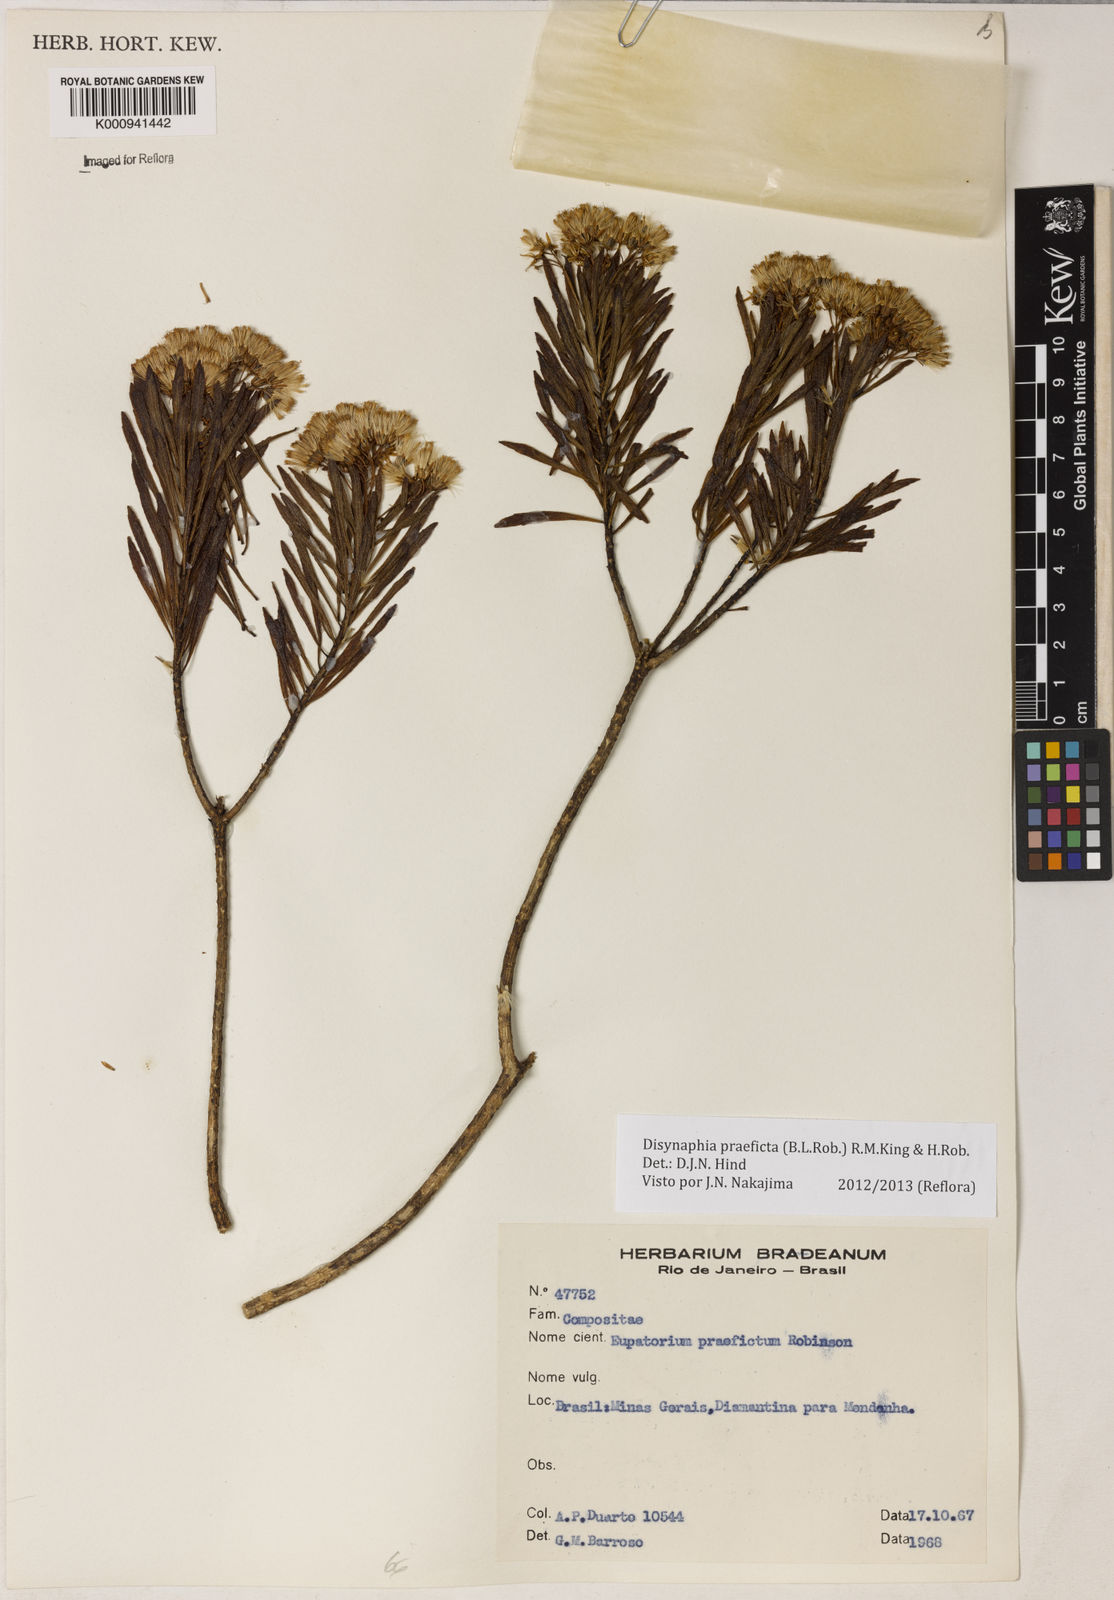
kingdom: Plantae
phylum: Tracheophyta
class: Magnoliopsida
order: Asterales
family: Asteraceae
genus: Disynaphia
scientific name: Disynaphia praeficta
